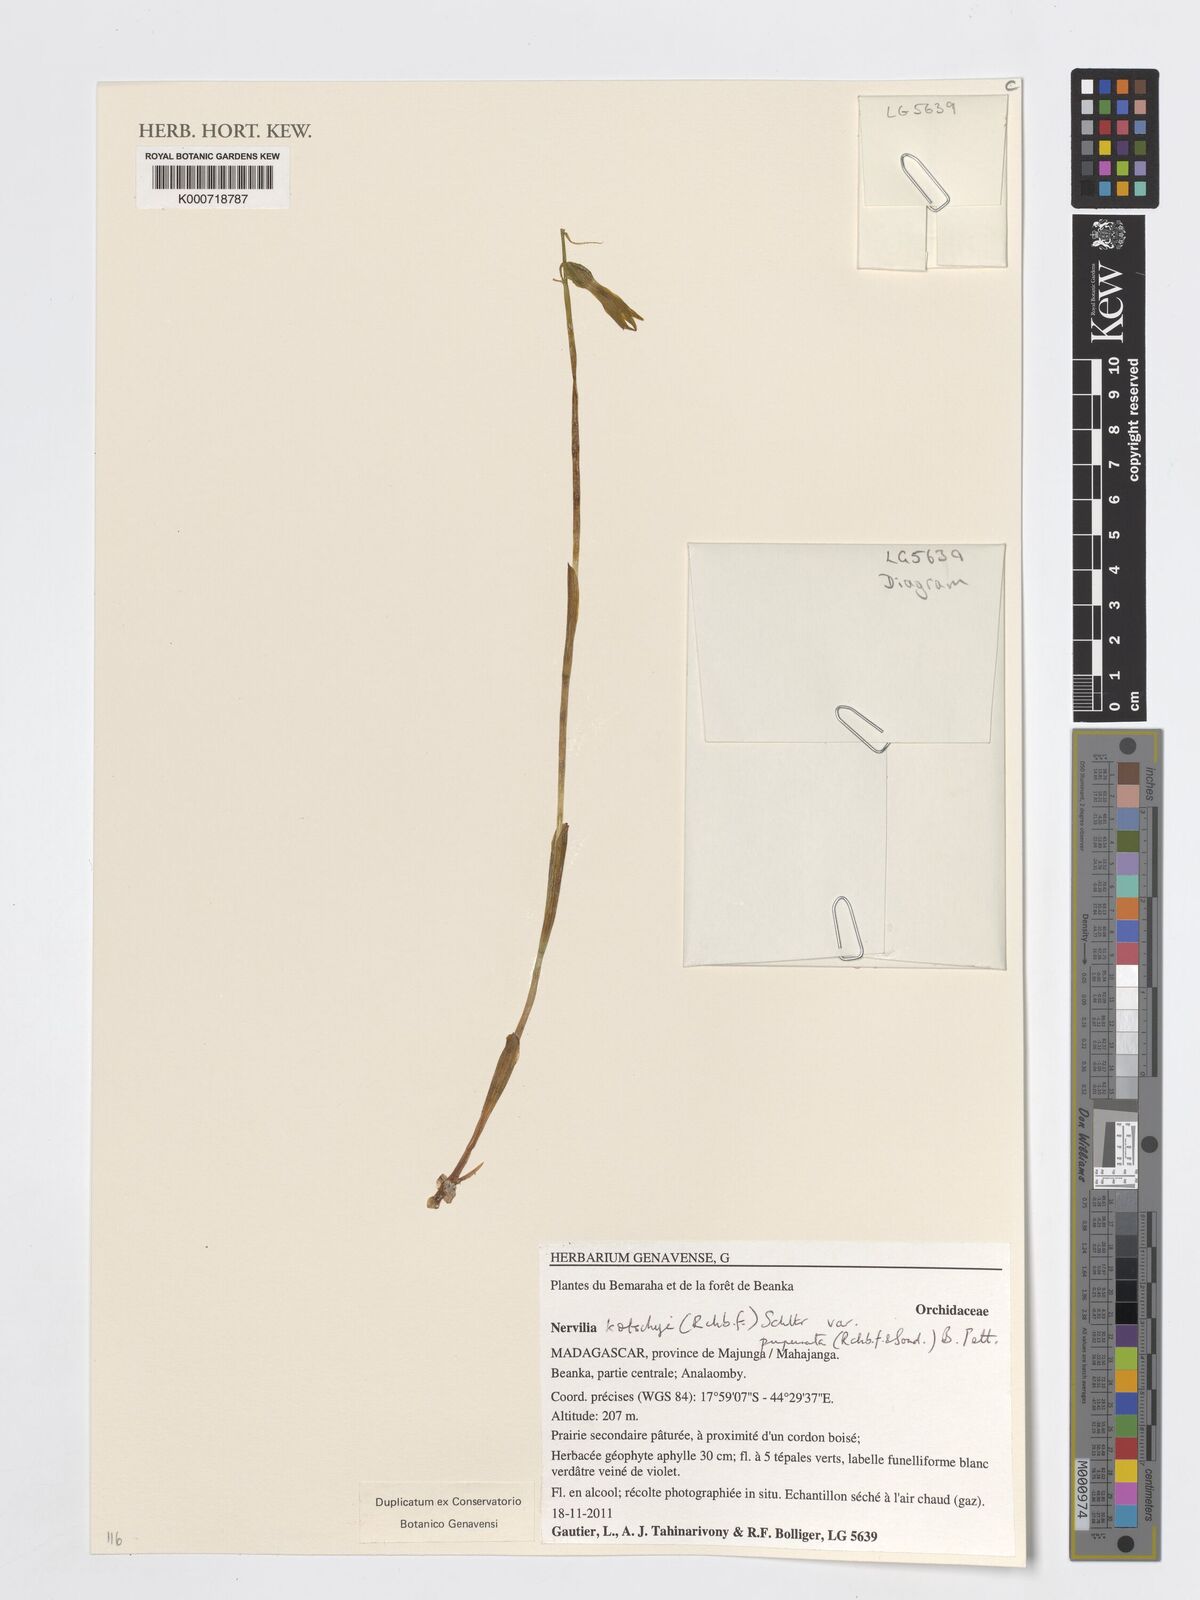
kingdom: Plantae
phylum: Tracheophyta
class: Liliopsida
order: Asparagales
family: Orchidaceae
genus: Nervilia
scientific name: Nervilia kotschyi
